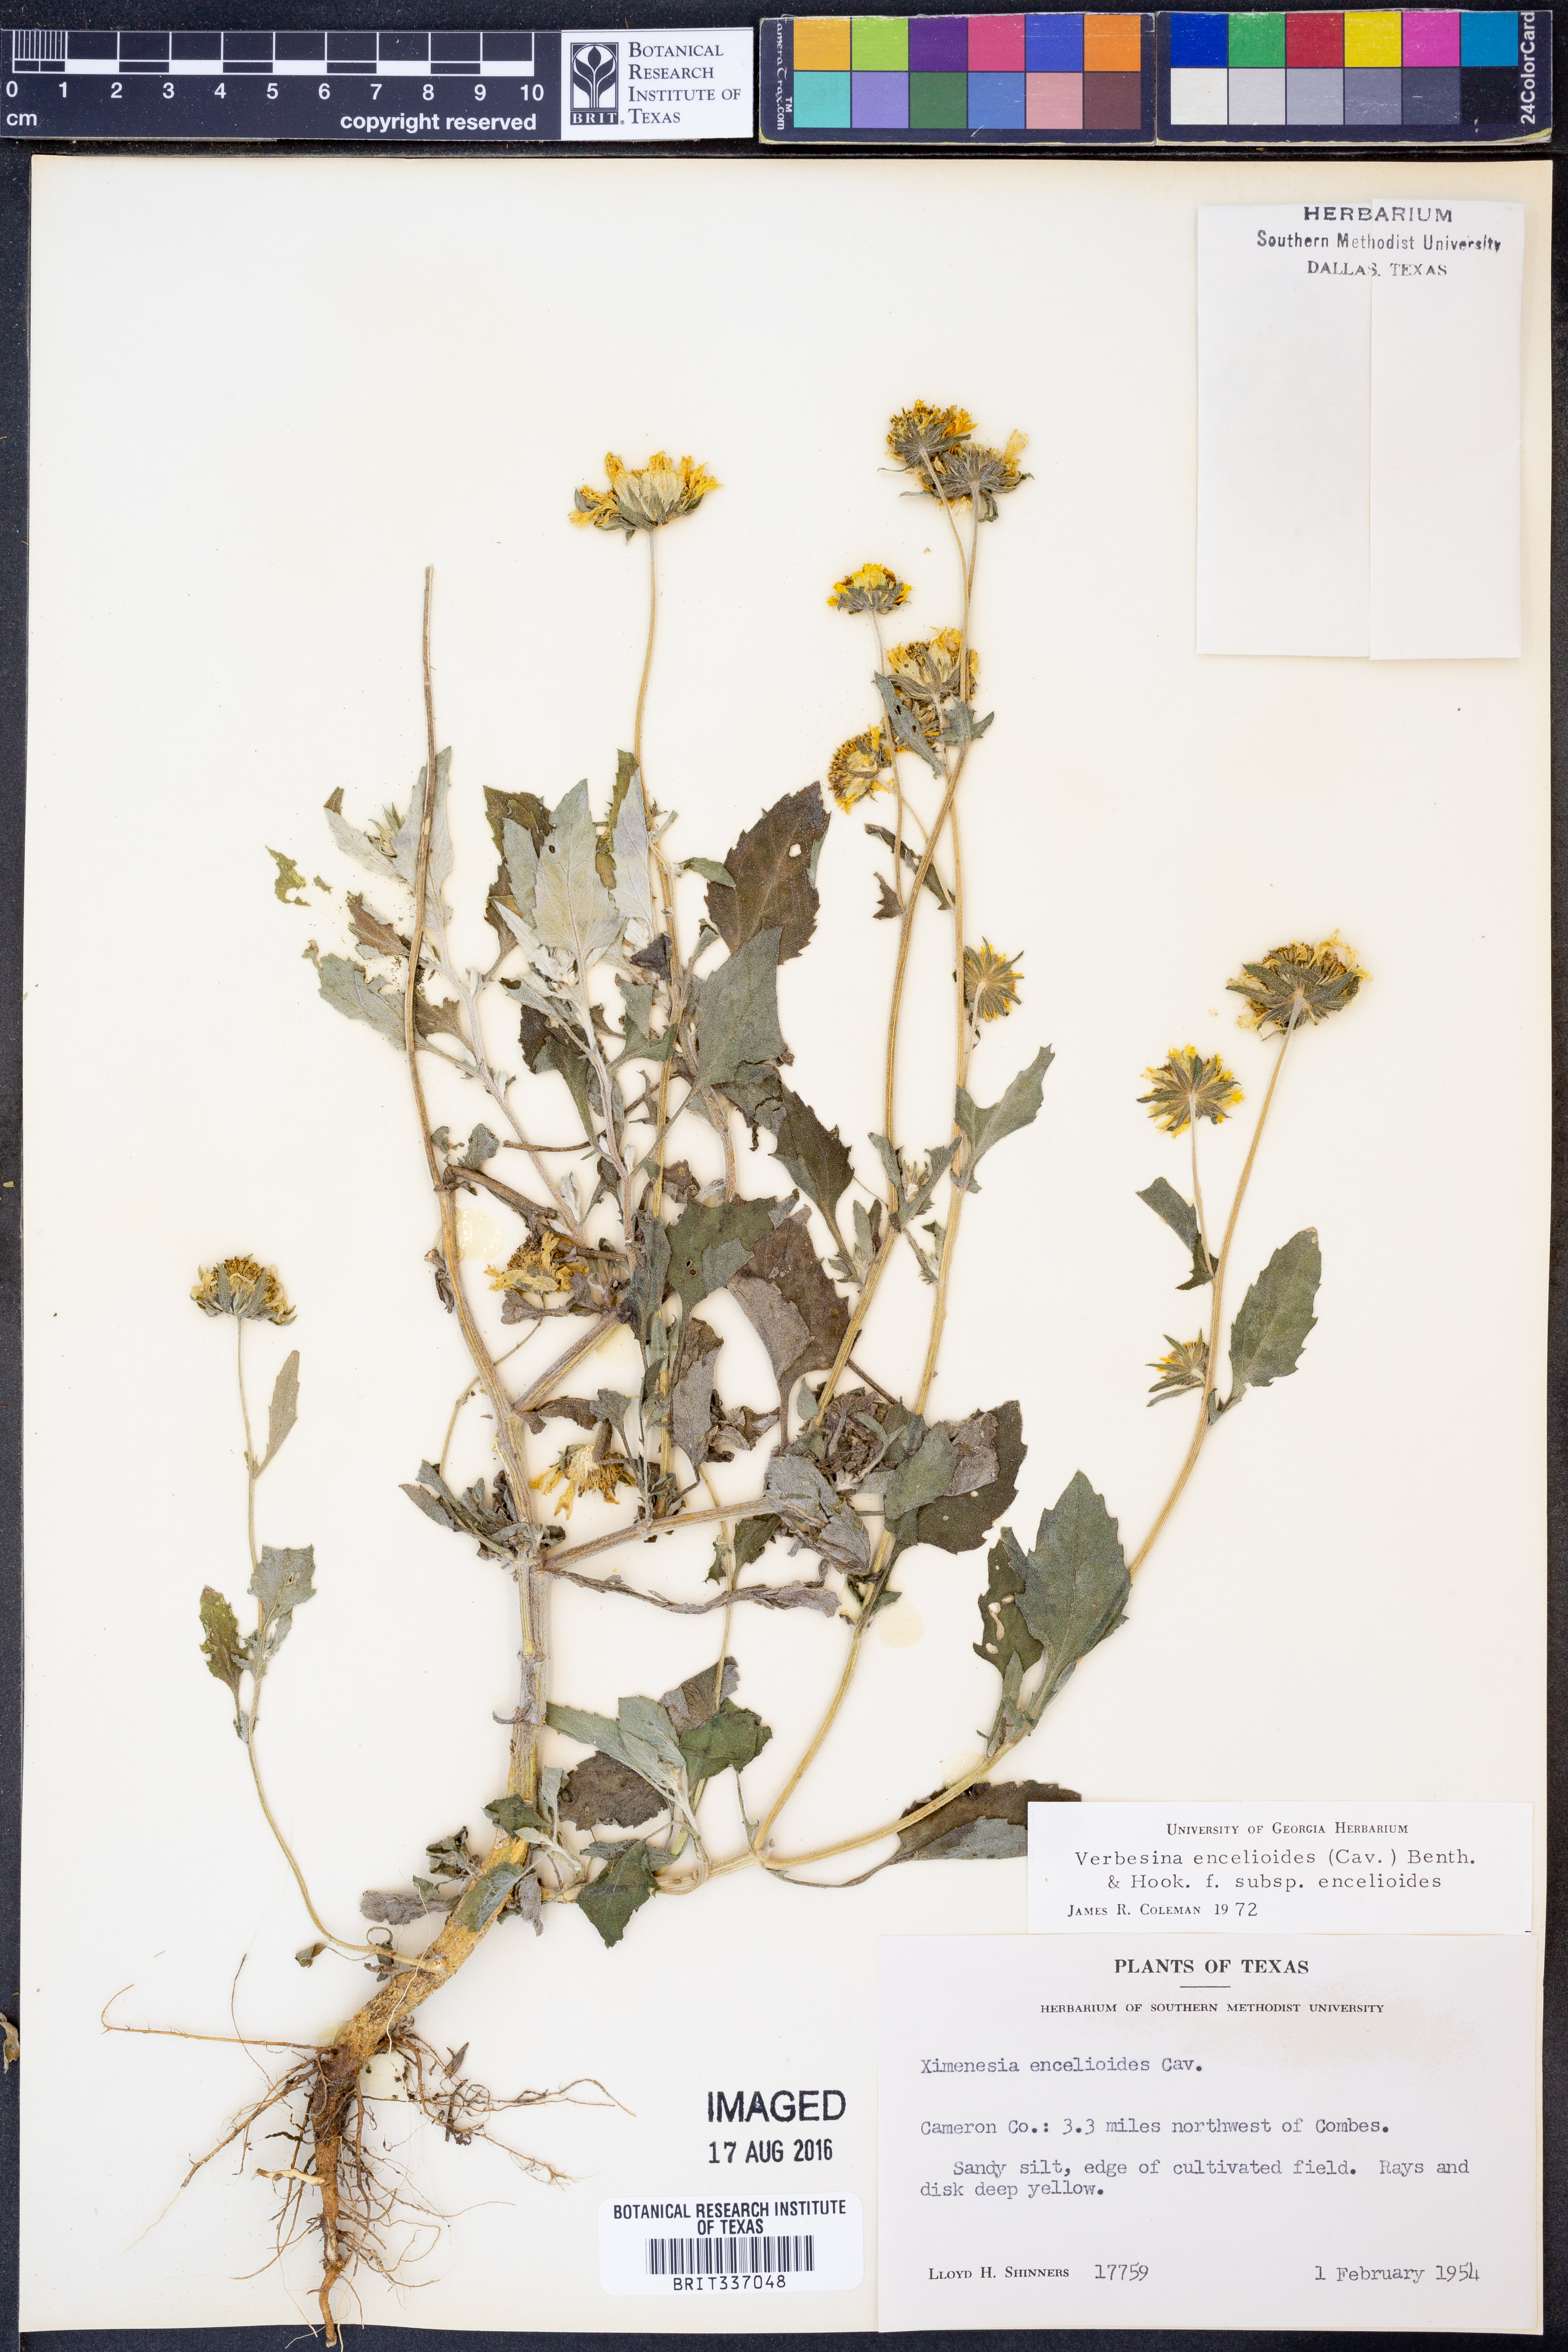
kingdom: Plantae
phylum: Tracheophyta
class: Magnoliopsida
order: Asterales
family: Asteraceae
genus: Verbesina
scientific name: Verbesina encelioides
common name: Golden crownbeard
